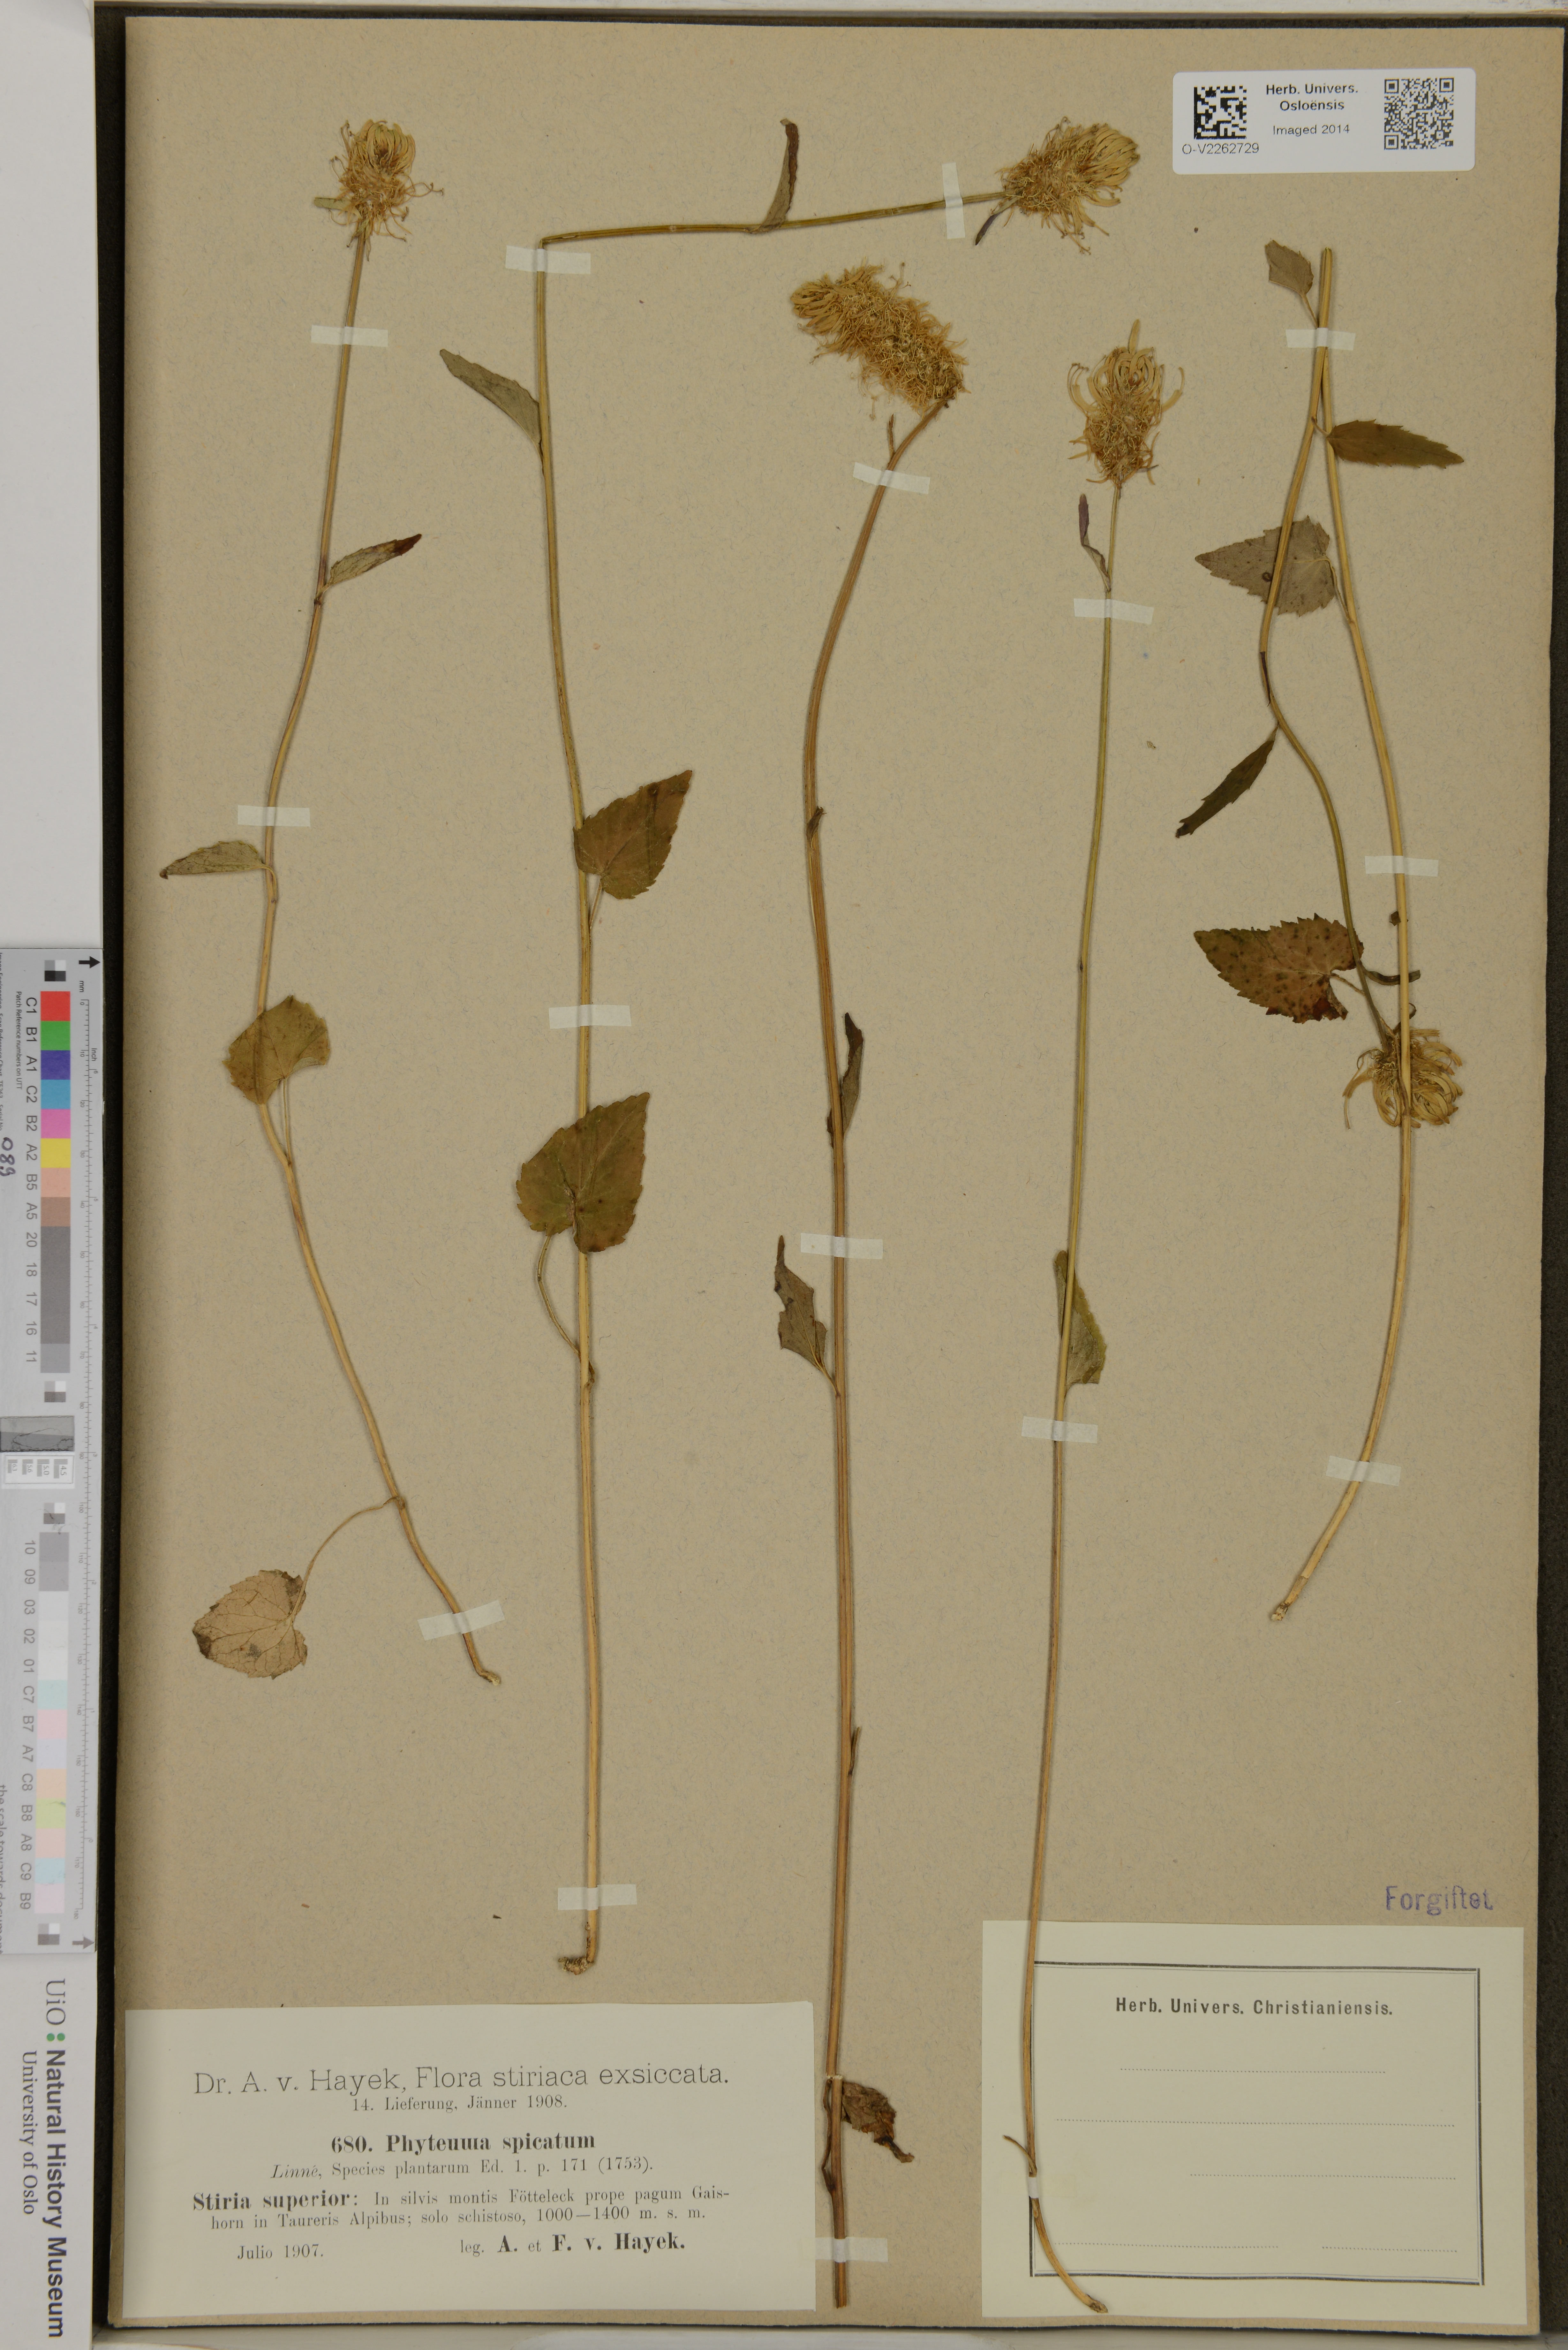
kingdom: Plantae
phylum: Tracheophyta
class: Magnoliopsida
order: Asterales
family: Campanulaceae
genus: Phyteuma
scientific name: Phyteuma spicatum
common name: Spiked rampion
